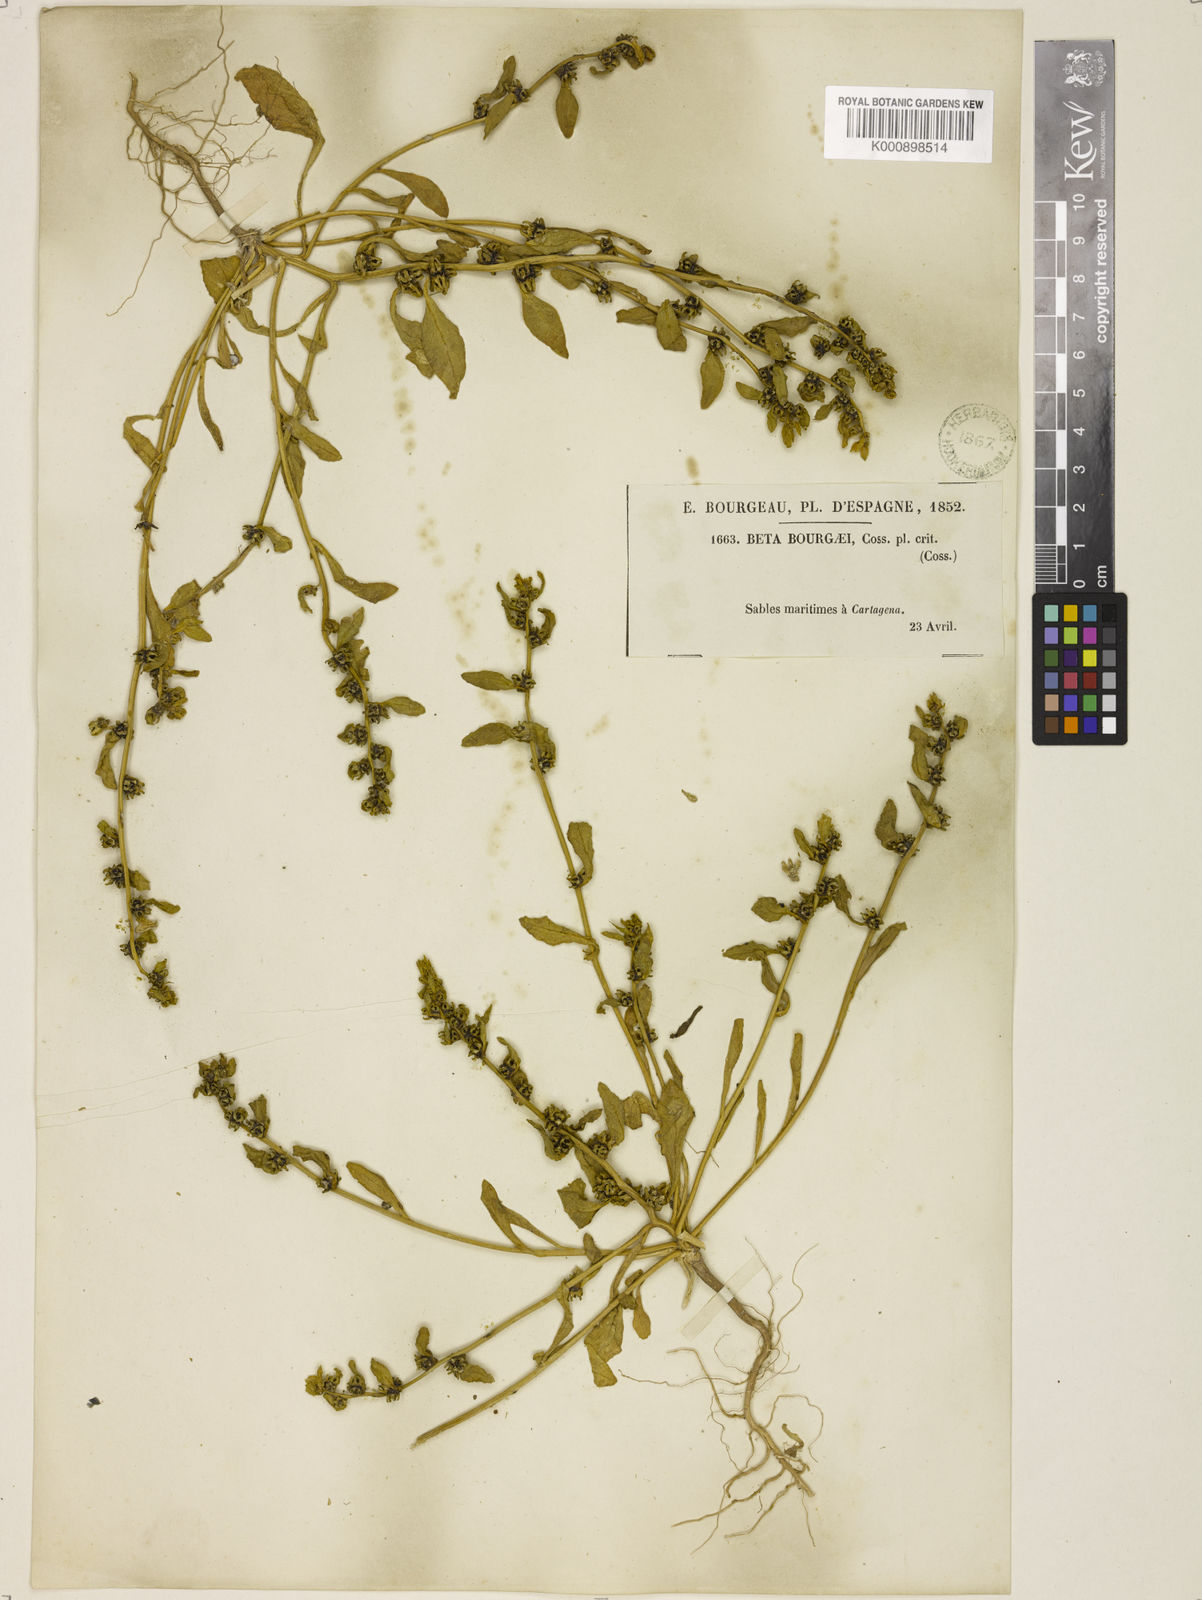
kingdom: Plantae
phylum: Tracheophyta
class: Magnoliopsida
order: Caryophyllales
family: Amaranthaceae
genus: Beta
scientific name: Beta macrocarpa
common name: Beet
